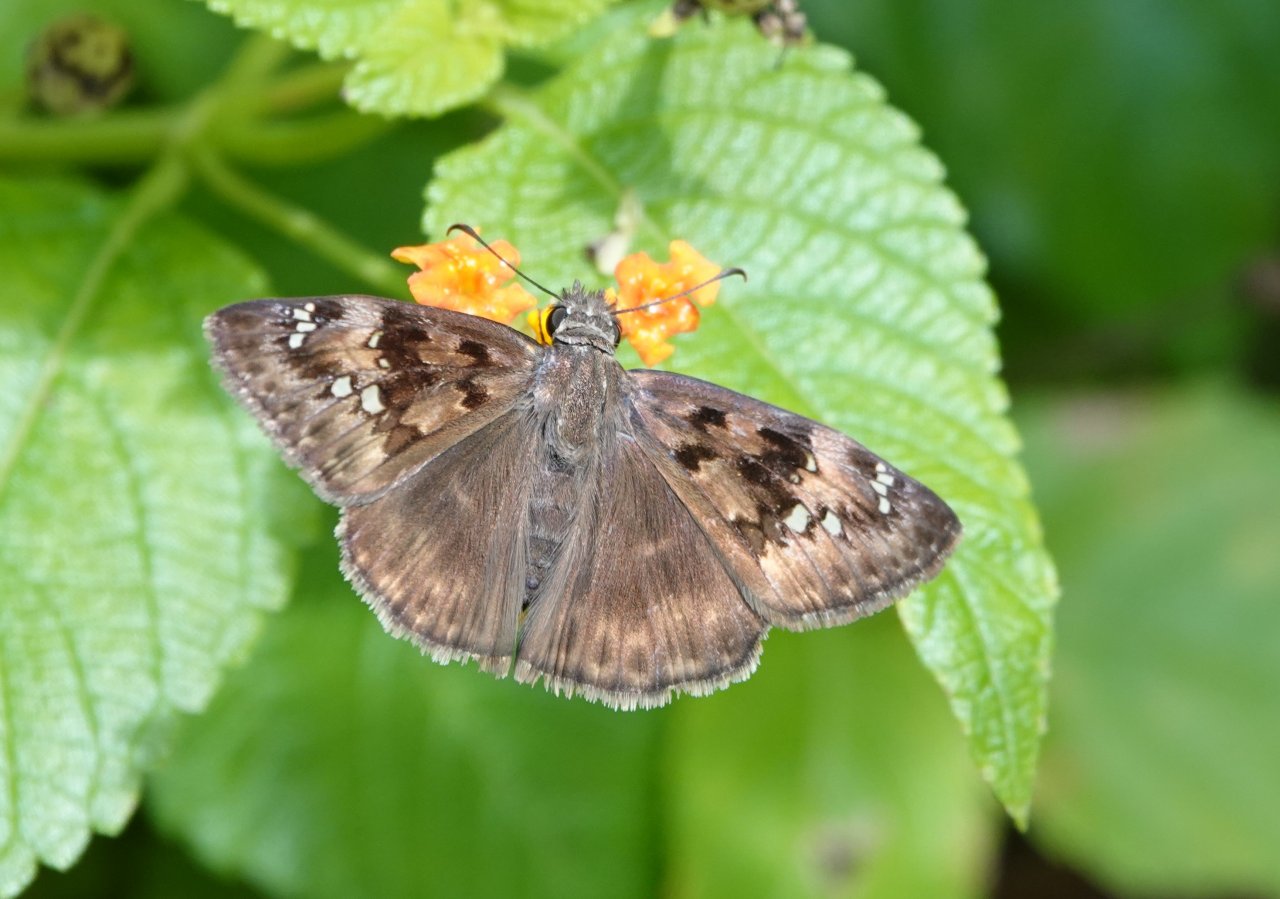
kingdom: Animalia
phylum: Arthropoda
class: Insecta
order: Lepidoptera
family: Hesperiidae
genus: Gesta
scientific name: Gesta
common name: Horace's Duskywing
